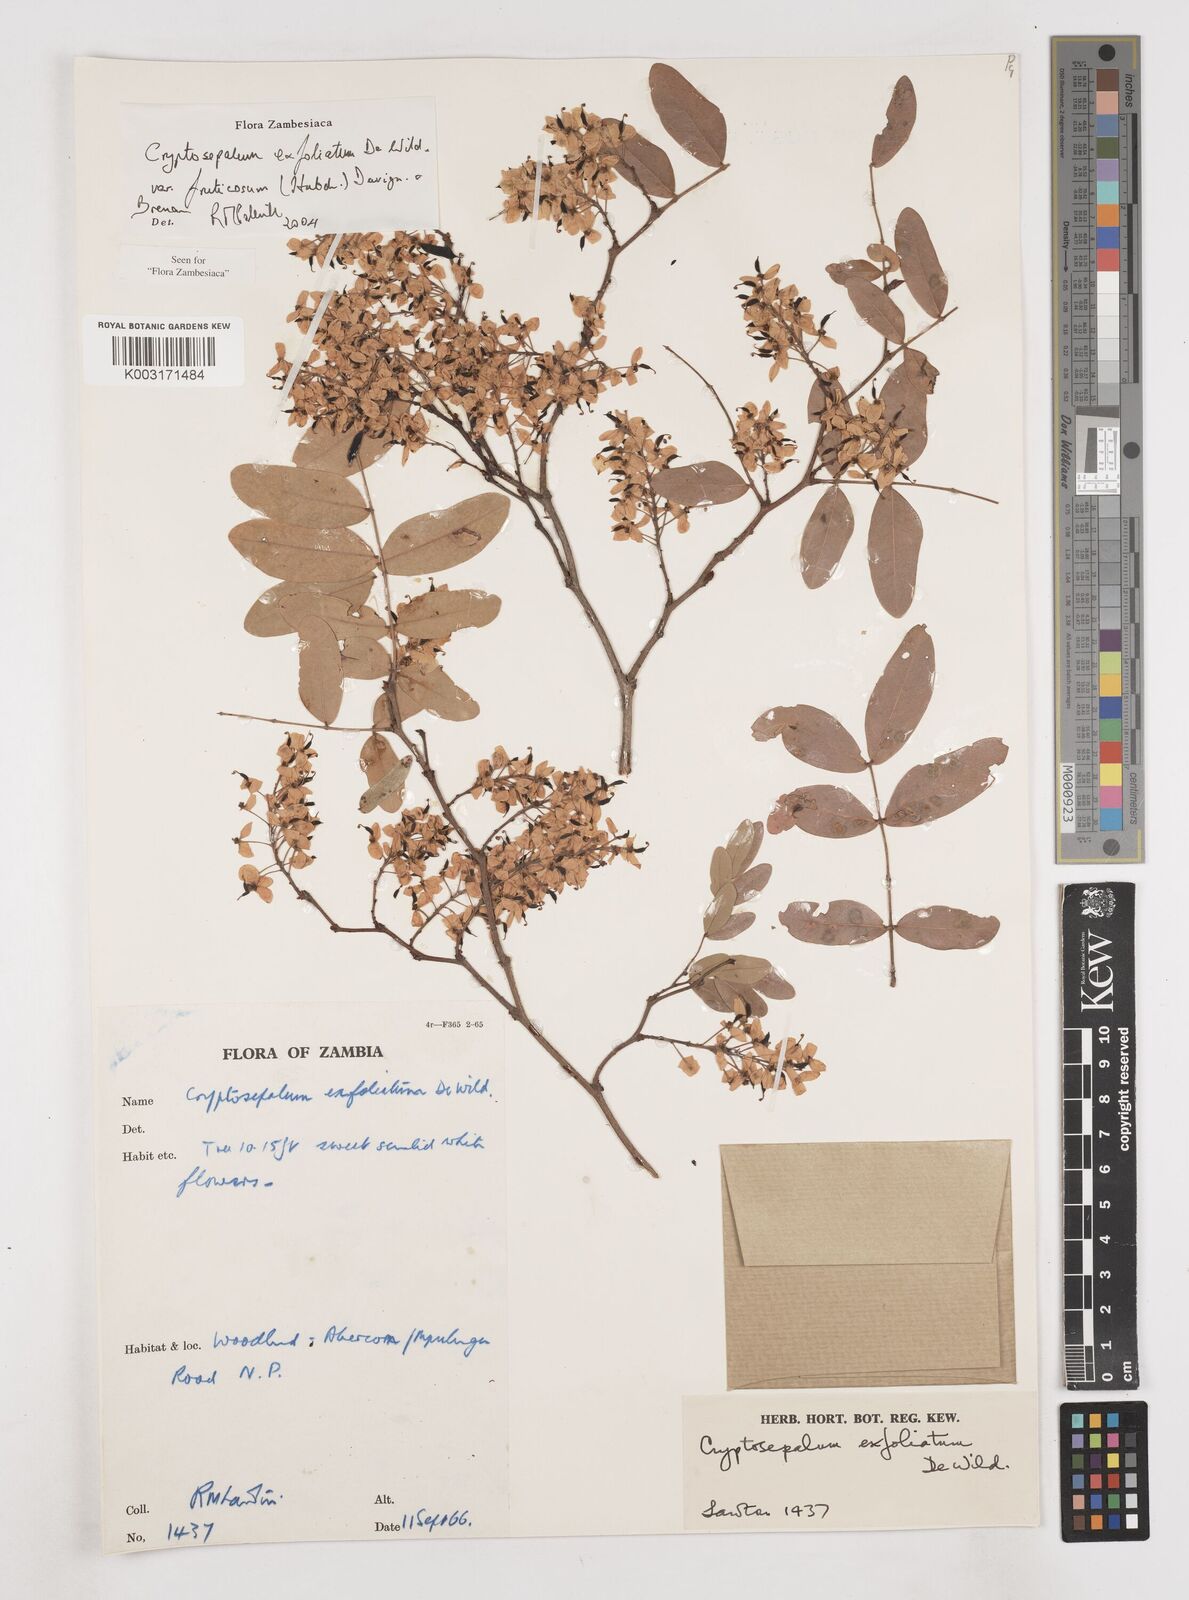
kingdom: Plantae
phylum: Tracheophyta
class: Magnoliopsida
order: Fabales
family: Fabaceae
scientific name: Fabaceae
